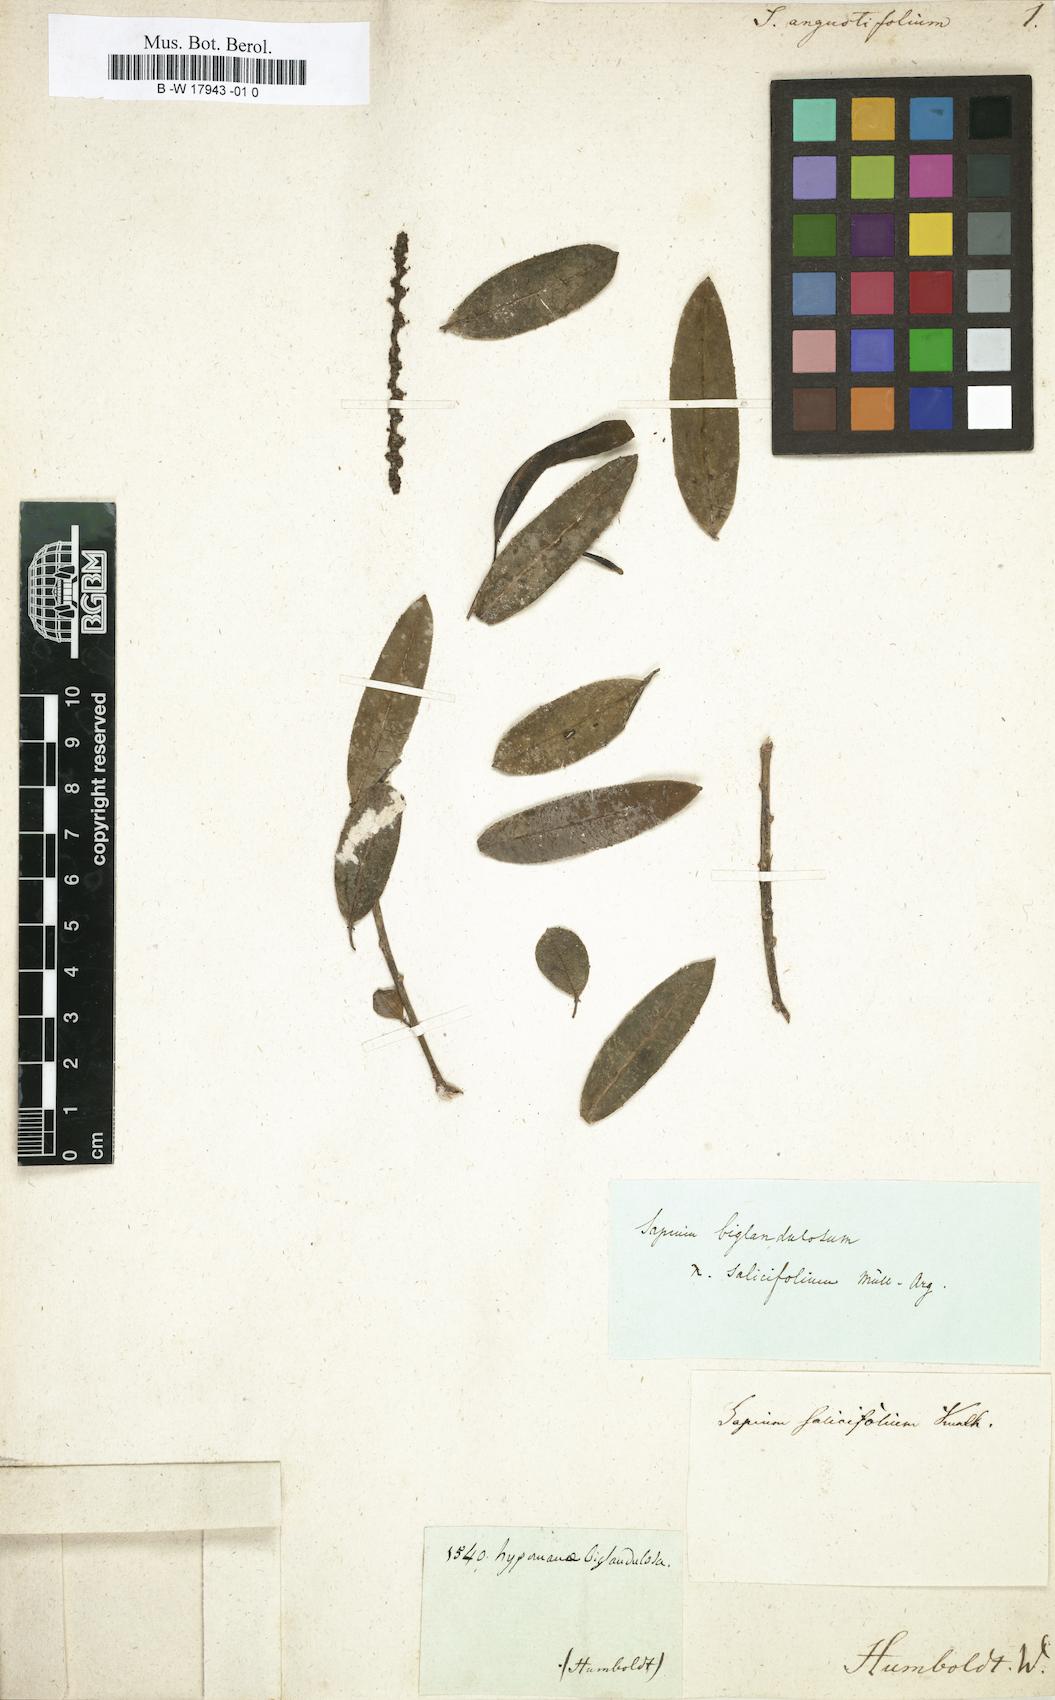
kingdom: Plantae
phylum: Tracheophyta
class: Magnoliopsida
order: Malpighiales
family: Euphorbiaceae
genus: Gymnanthes
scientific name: Gymnanthes pallens
